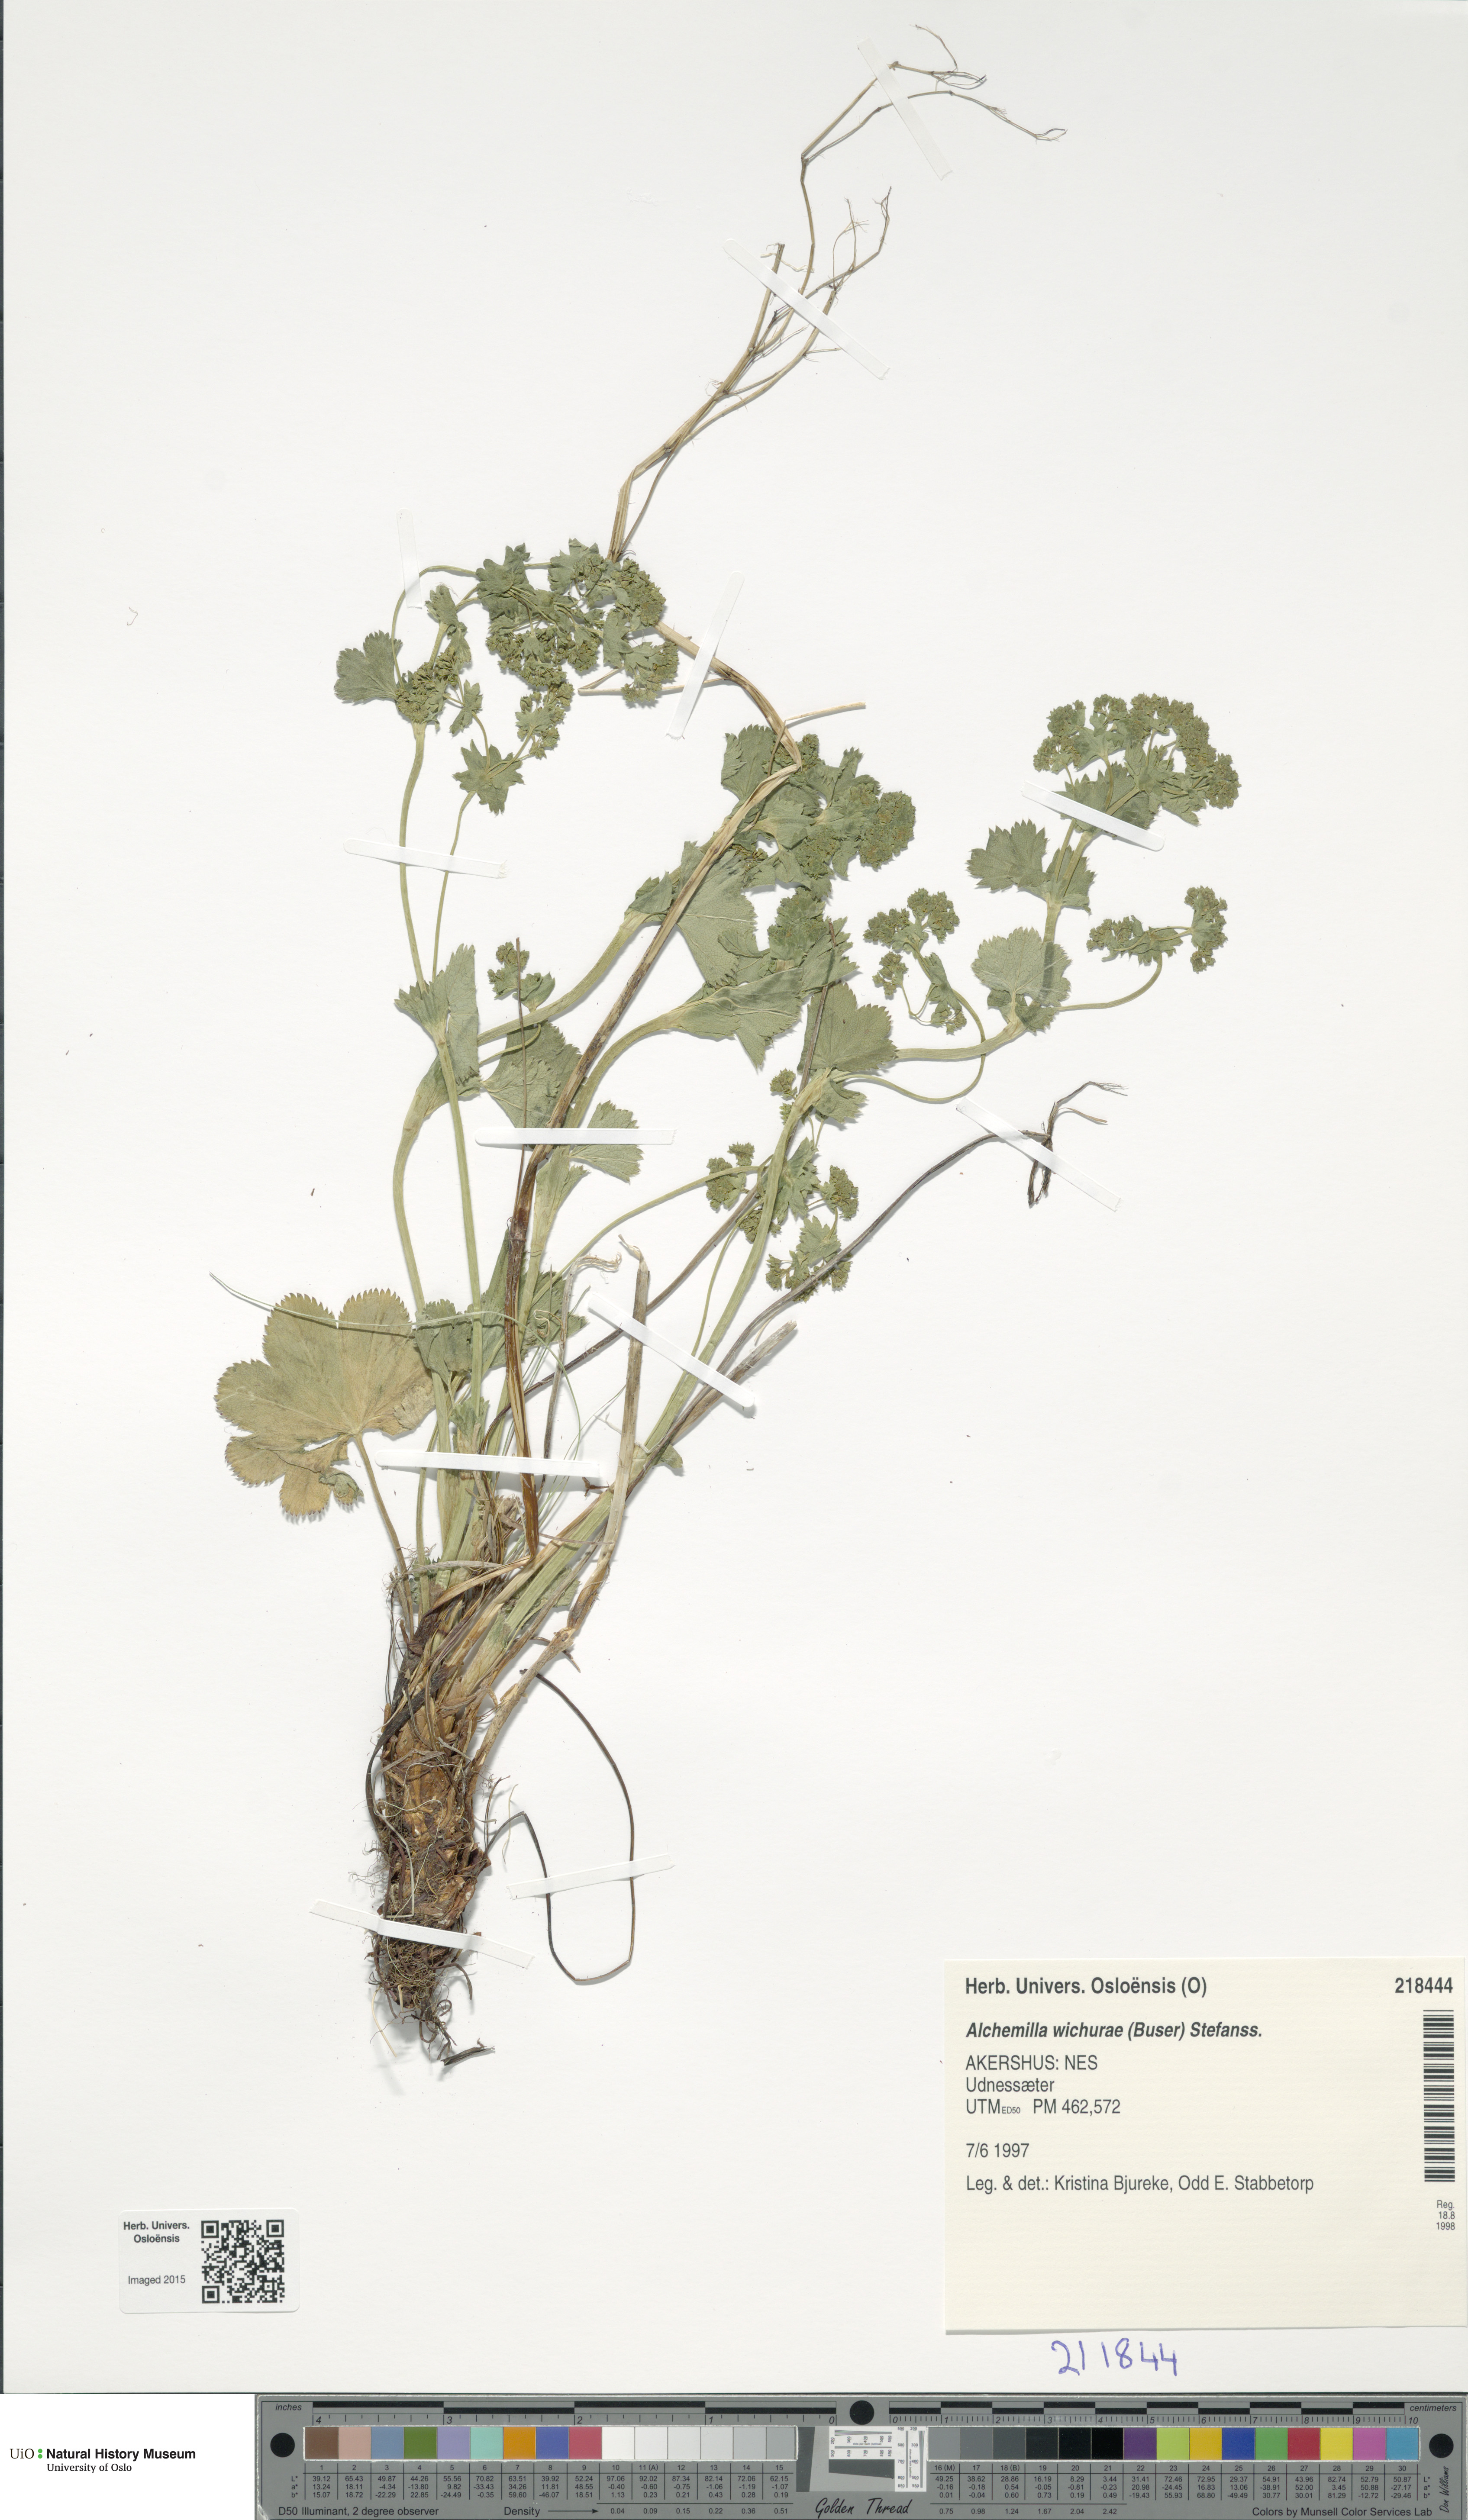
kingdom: Plantae
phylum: Tracheophyta
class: Magnoliopsida
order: Rosales
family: Rosaceae
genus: Alchemilla
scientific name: Alchemilla wichurae
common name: Rock lady's mantle
